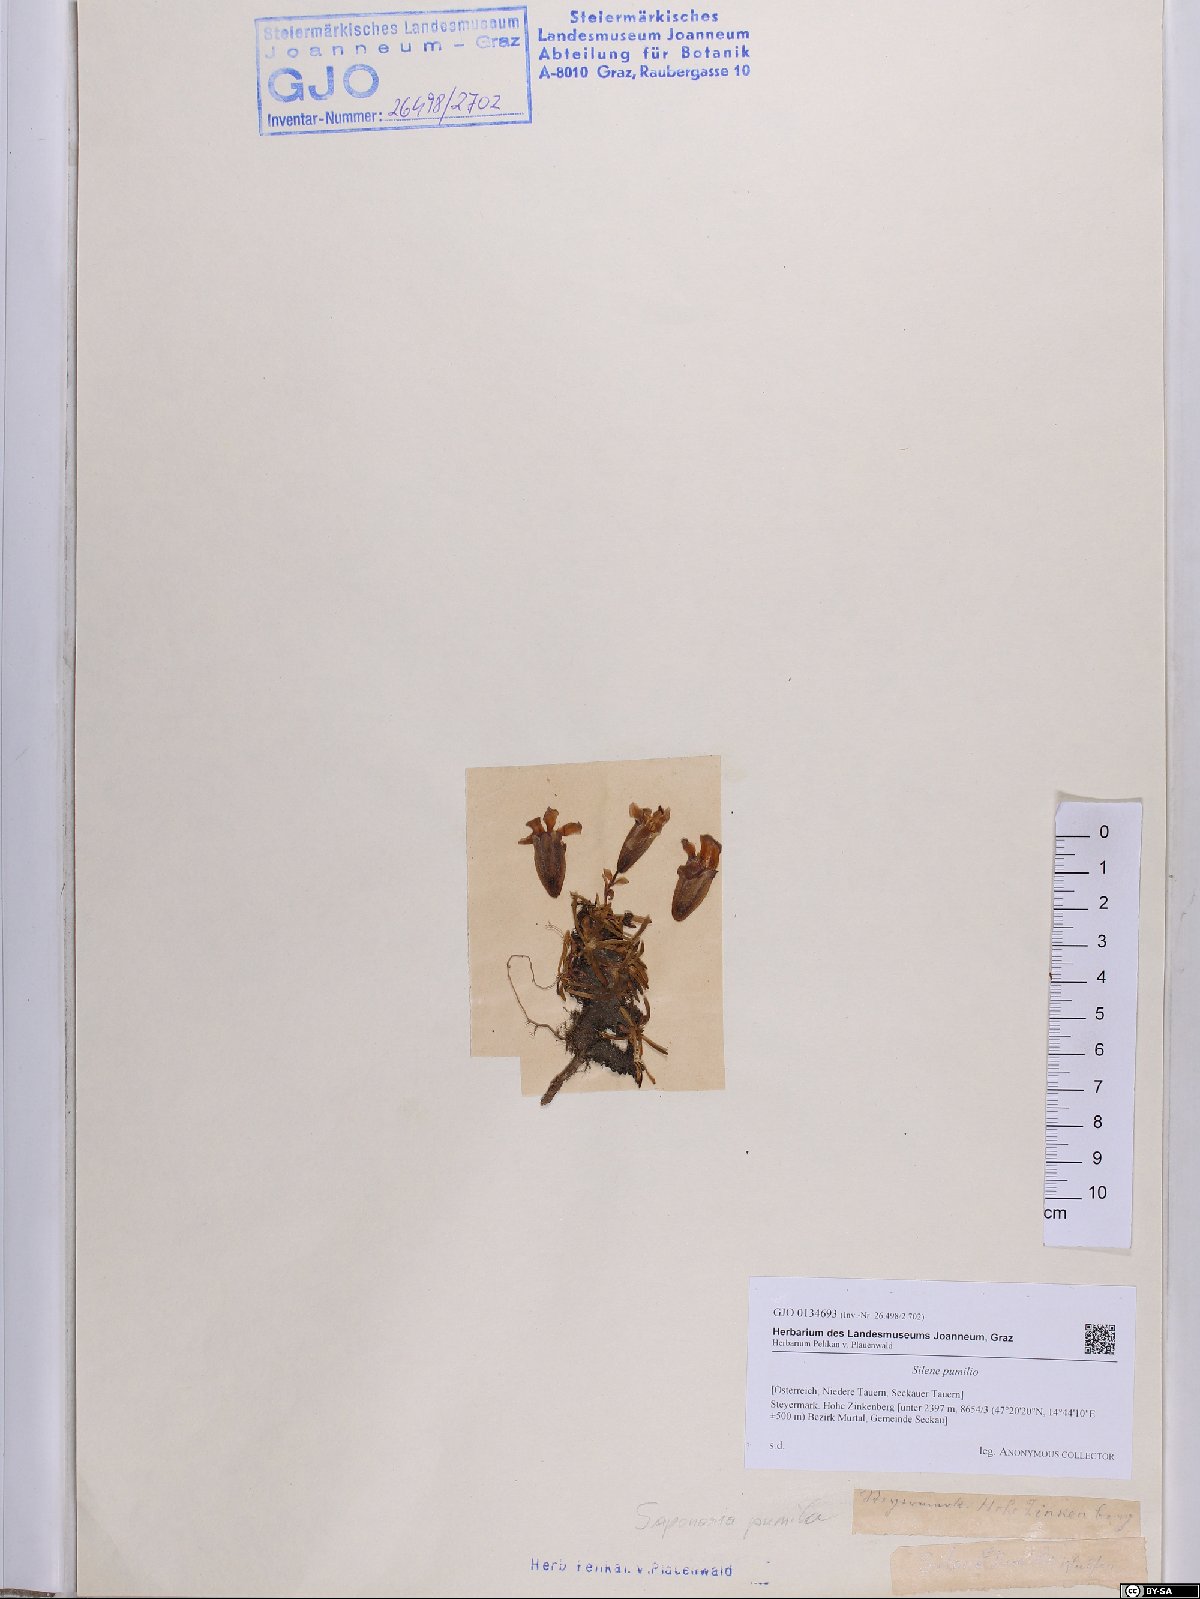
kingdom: Plantae
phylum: Tracheophyta
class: Magnoliopsida
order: Caryophyllales
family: Caryophyllaceae
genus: Saponaria
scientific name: Saponaria pumila
